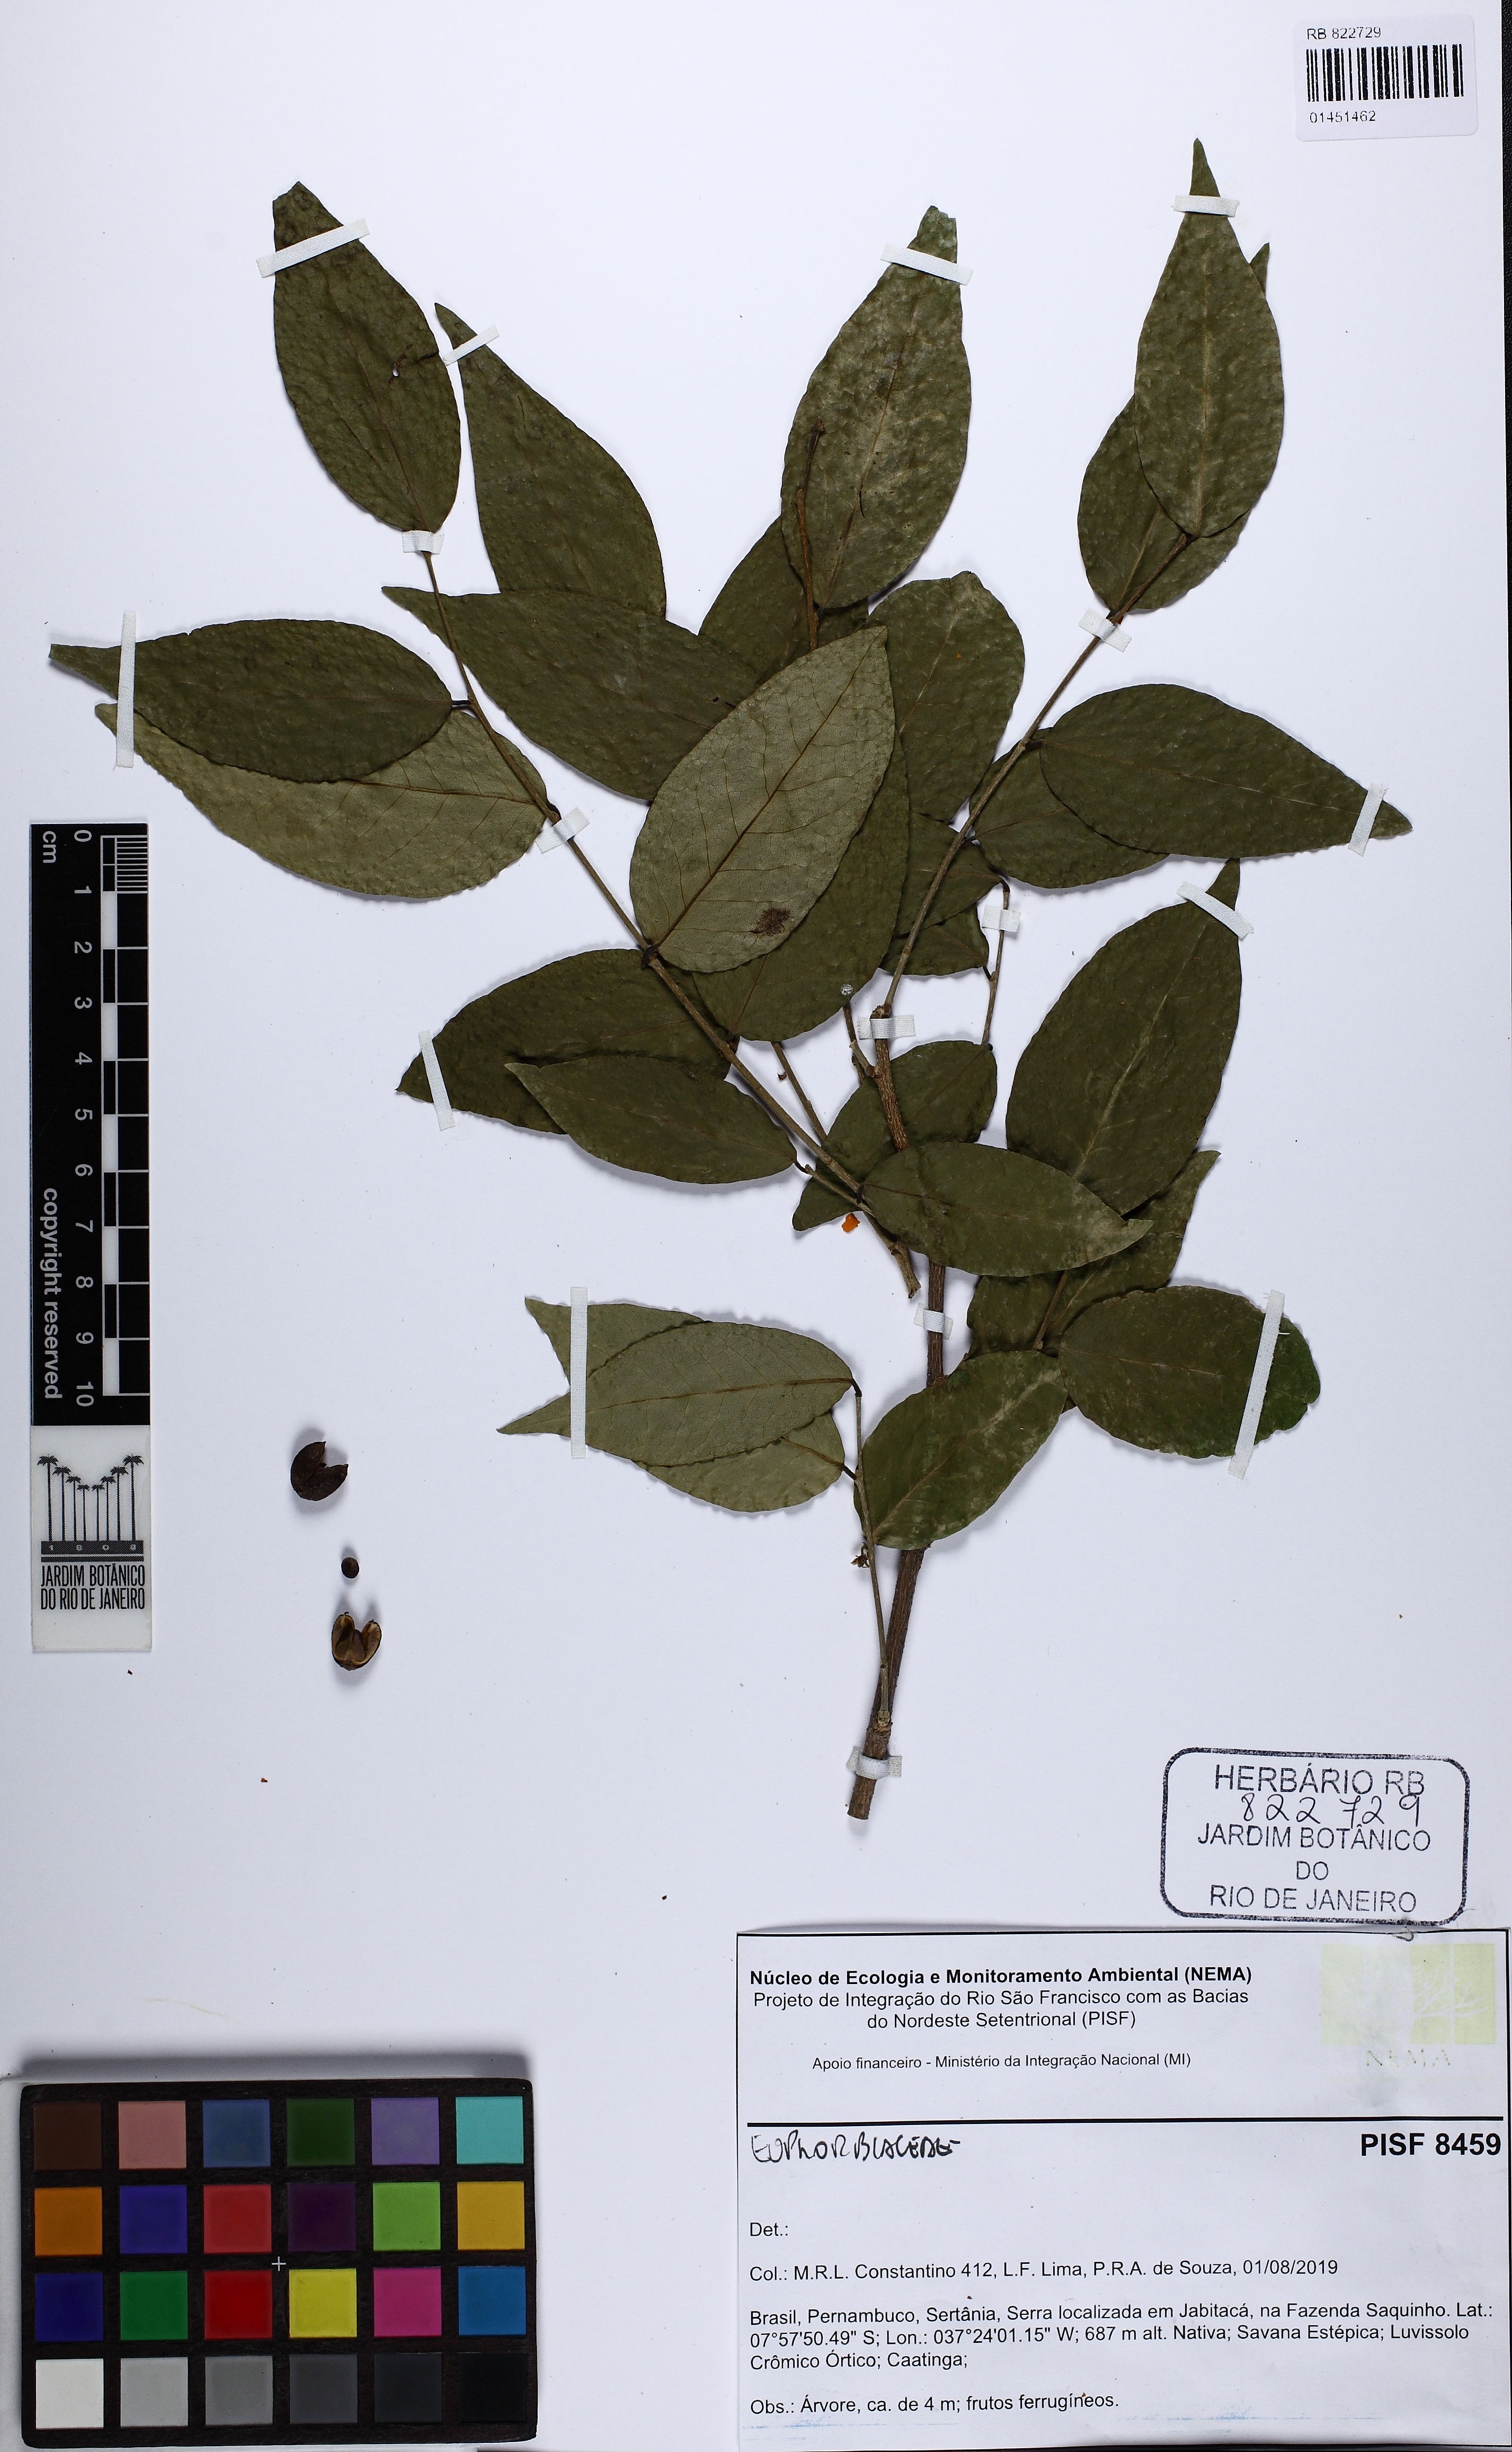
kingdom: Plantae
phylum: Tracheophyta
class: Magnoliopsida
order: Malpighiales
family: Euphorbiaceae
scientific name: Euphorbiaceae
